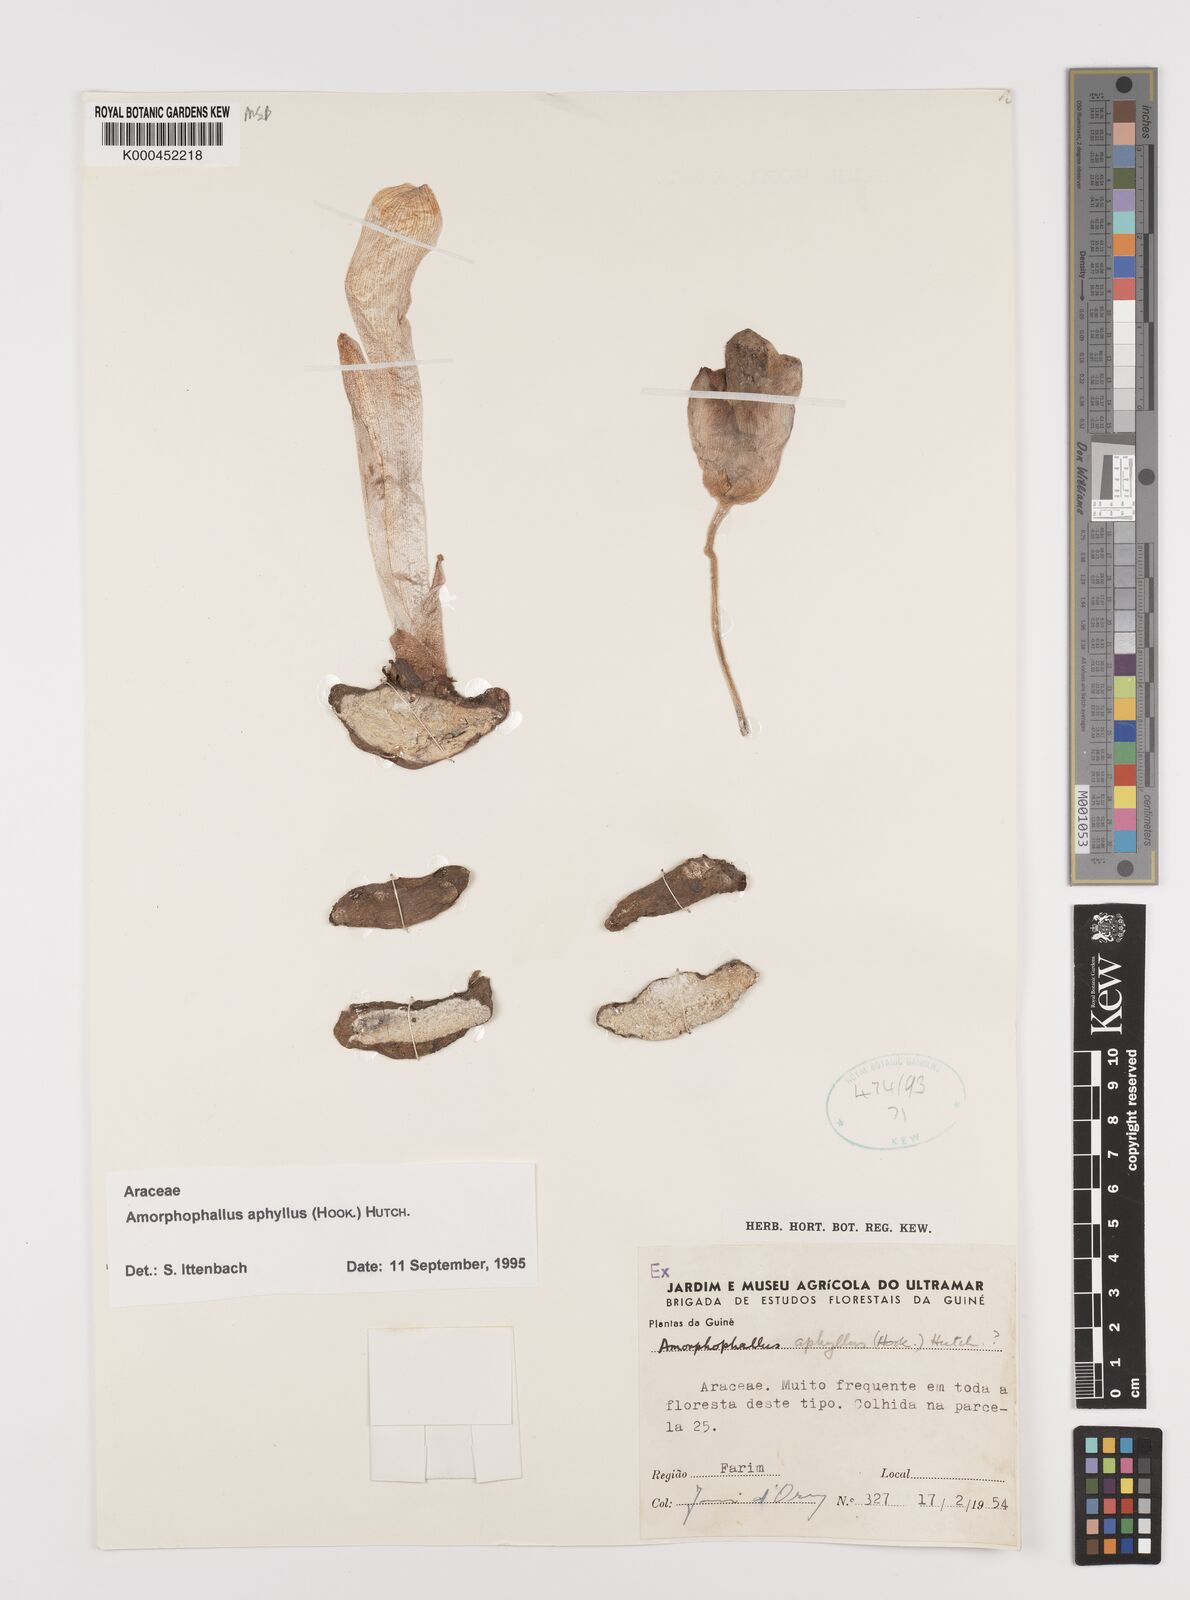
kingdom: Plantae
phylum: Tracheophyta
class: Liliopsida
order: Alismatales
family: Araceae
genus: Amorphophallus
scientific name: Amorphophallus aphyllus
